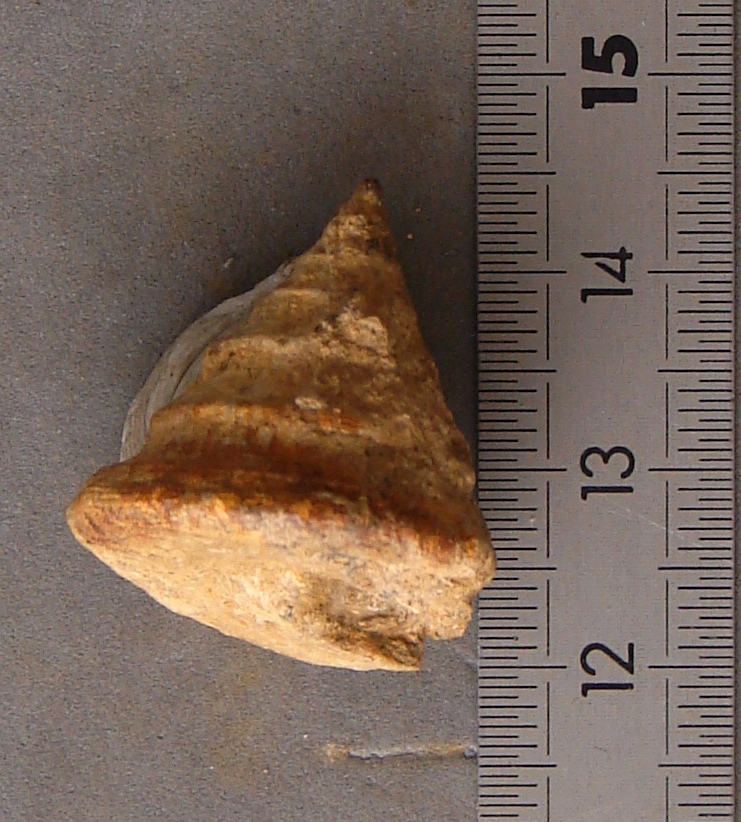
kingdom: Animalia
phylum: Mollusca
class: Gastropoda
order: Pleurotomariida
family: Pleurotomariidae
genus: Pyrgotrochus
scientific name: Pyrgotrochus elongatus
